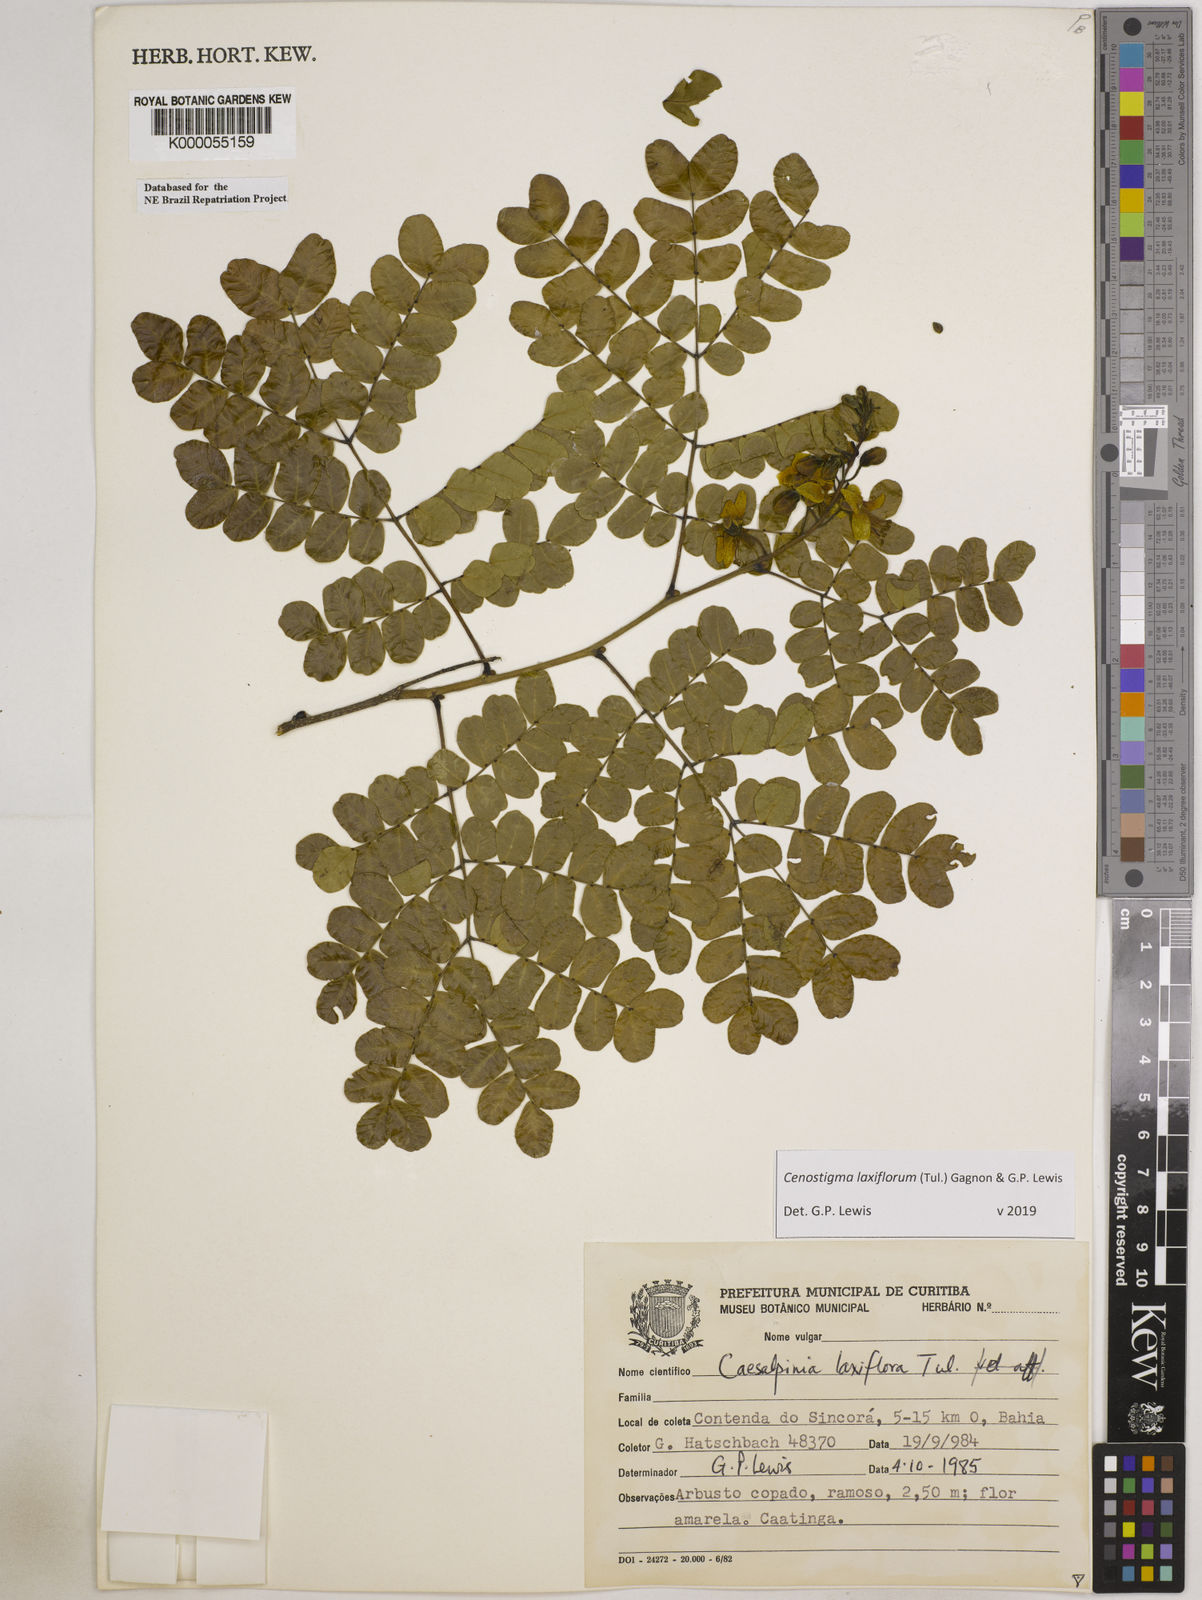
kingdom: Plantae
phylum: Tracheophyta
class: Magnoliopsida
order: Fabales
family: Fabaceae
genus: Cenostigma
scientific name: Cenostigma laxiflorum
